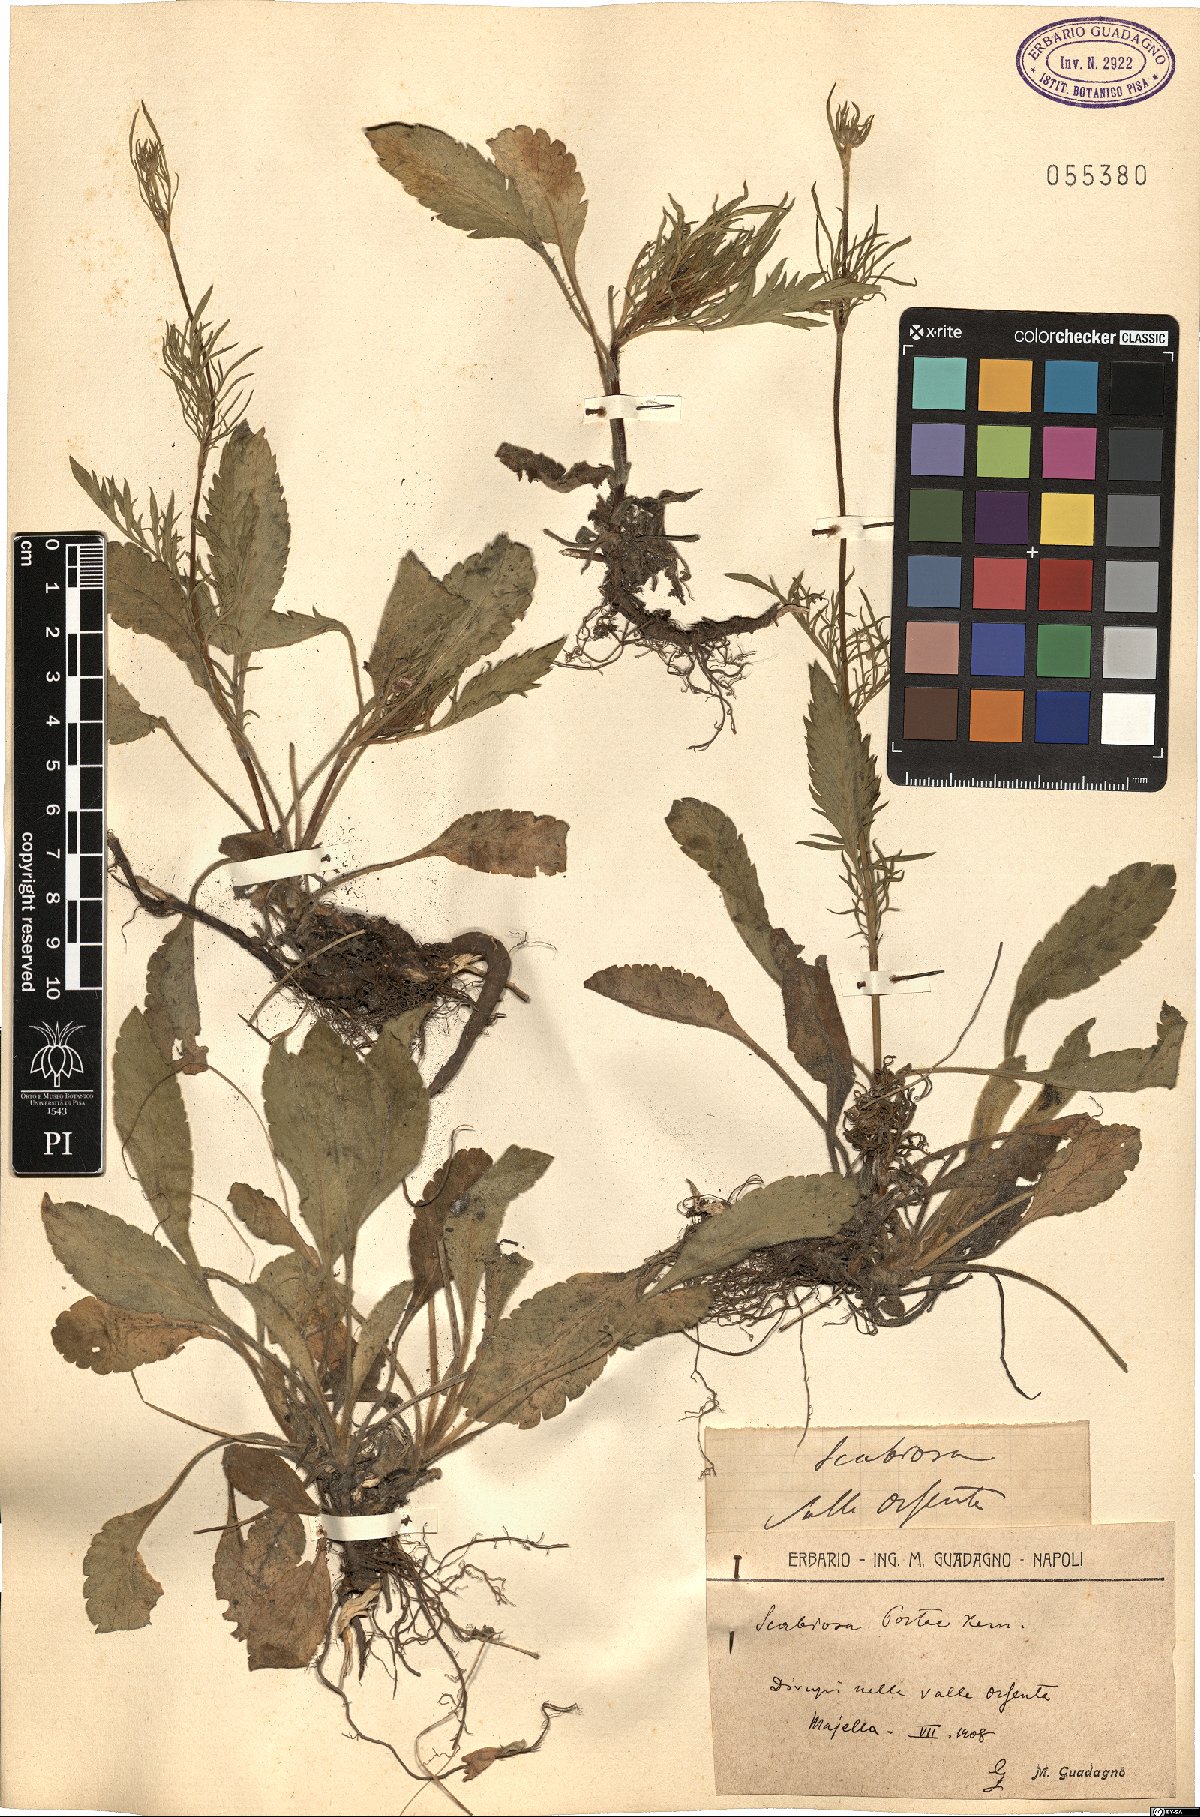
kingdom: Plantae
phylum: Tracheophyta
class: Magnoliopsida
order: Dipsacales
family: Caprifoliaceae
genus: Scabiosa
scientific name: Scabiosa taygetea
